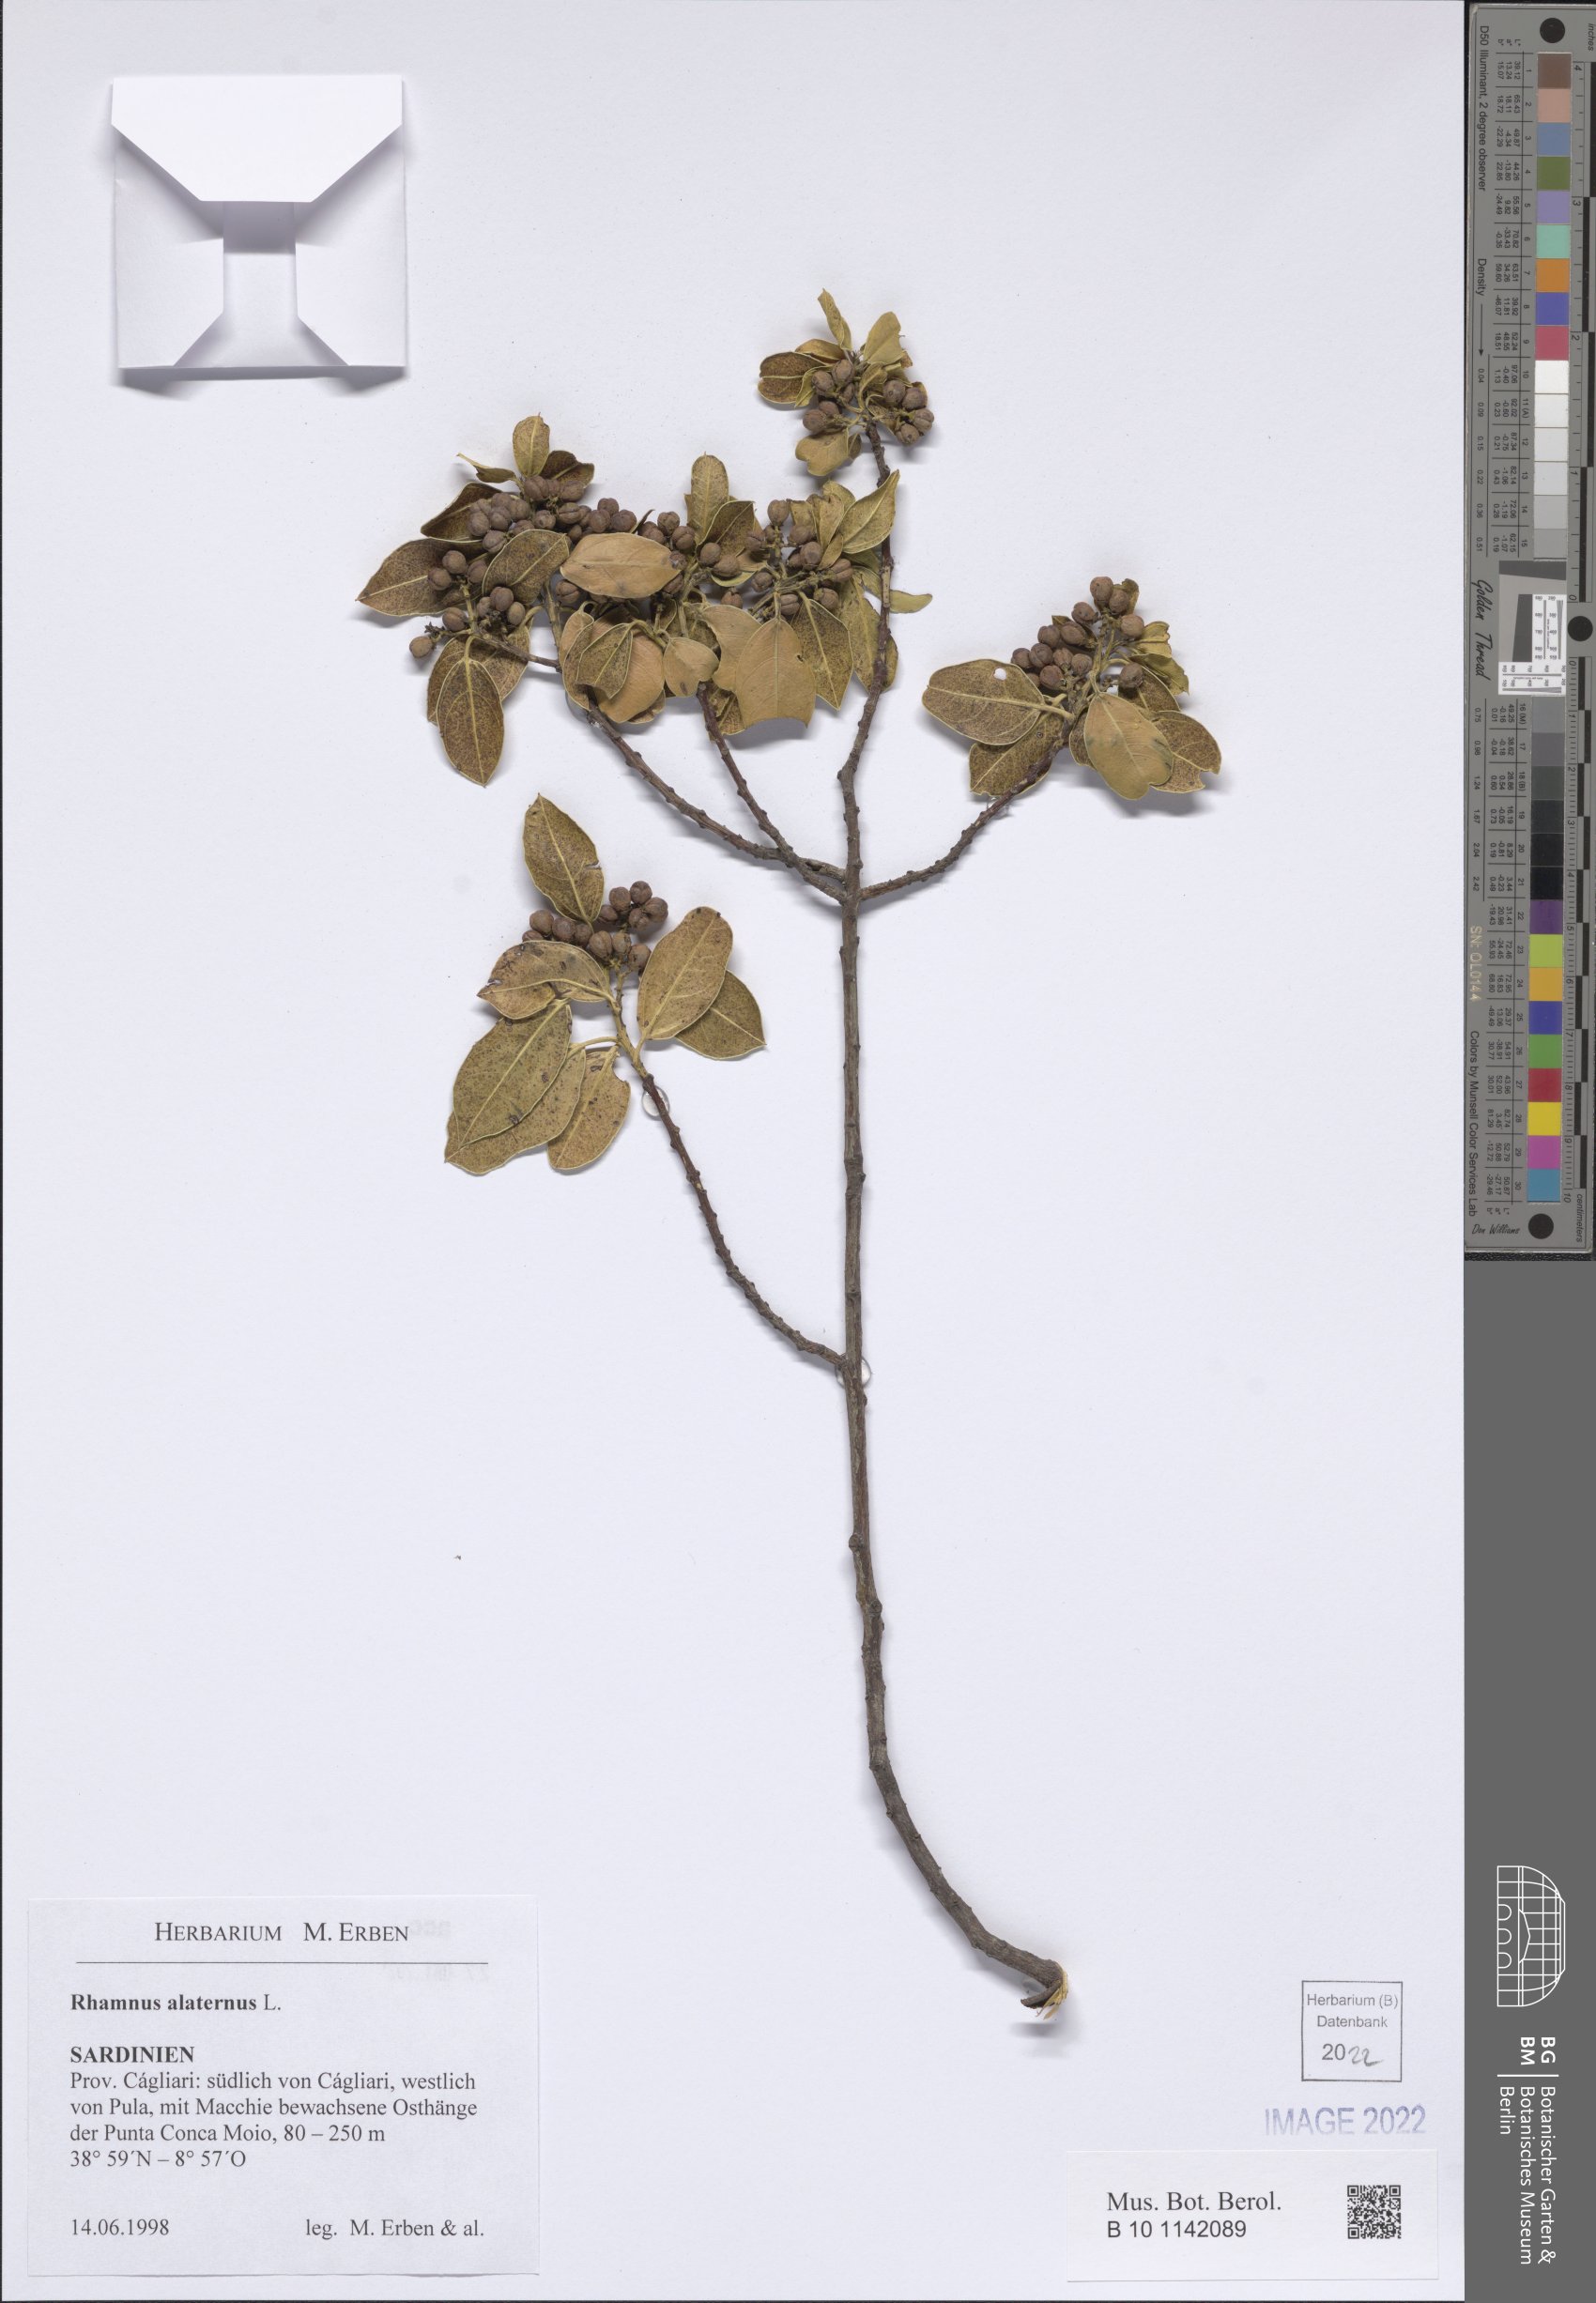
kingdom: Plantae
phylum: Tracheophyta
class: Magnoliopsida
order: Rosales
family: Rhamnaceae
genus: Rhamnus
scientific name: Rhamnus alaternus
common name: Mediterranean buckthorn
